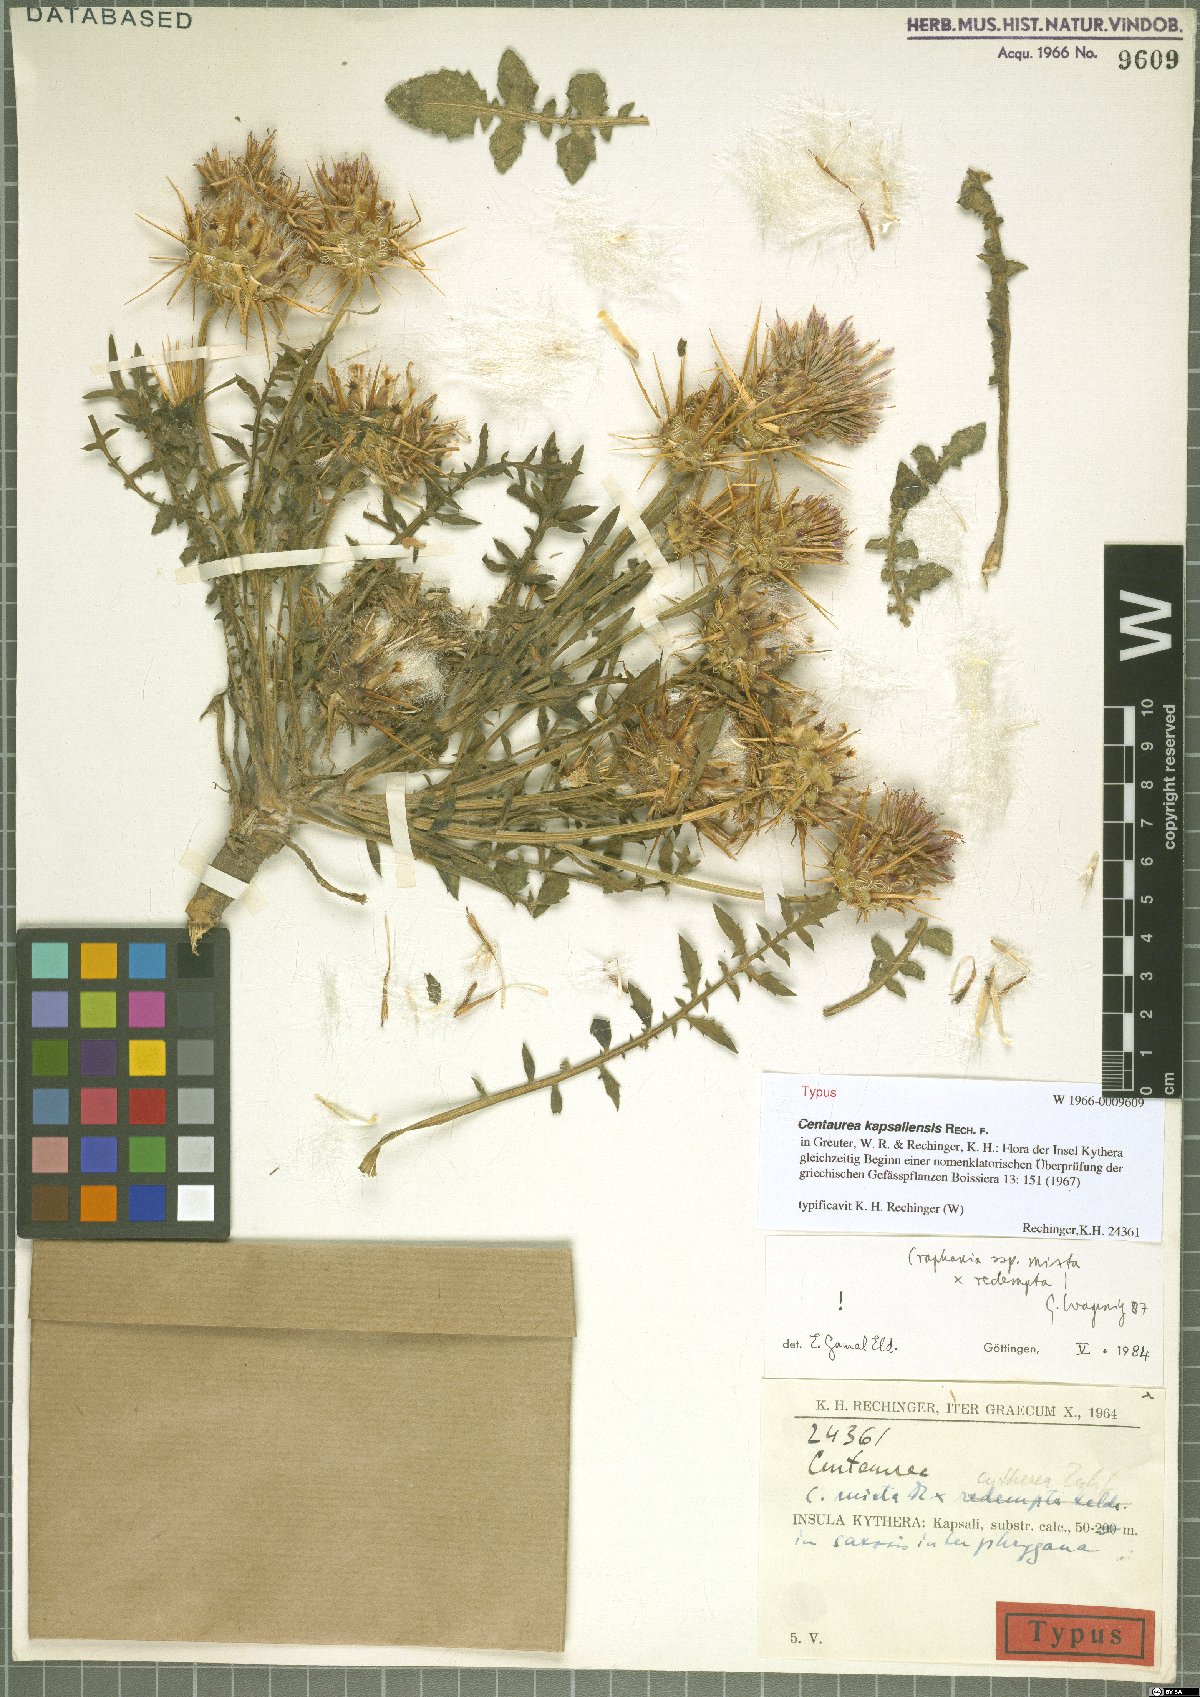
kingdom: Plantae
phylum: Tracheophyta
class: Magnoliopsida
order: Asterales
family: Asteraceae
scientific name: Asteraceae
